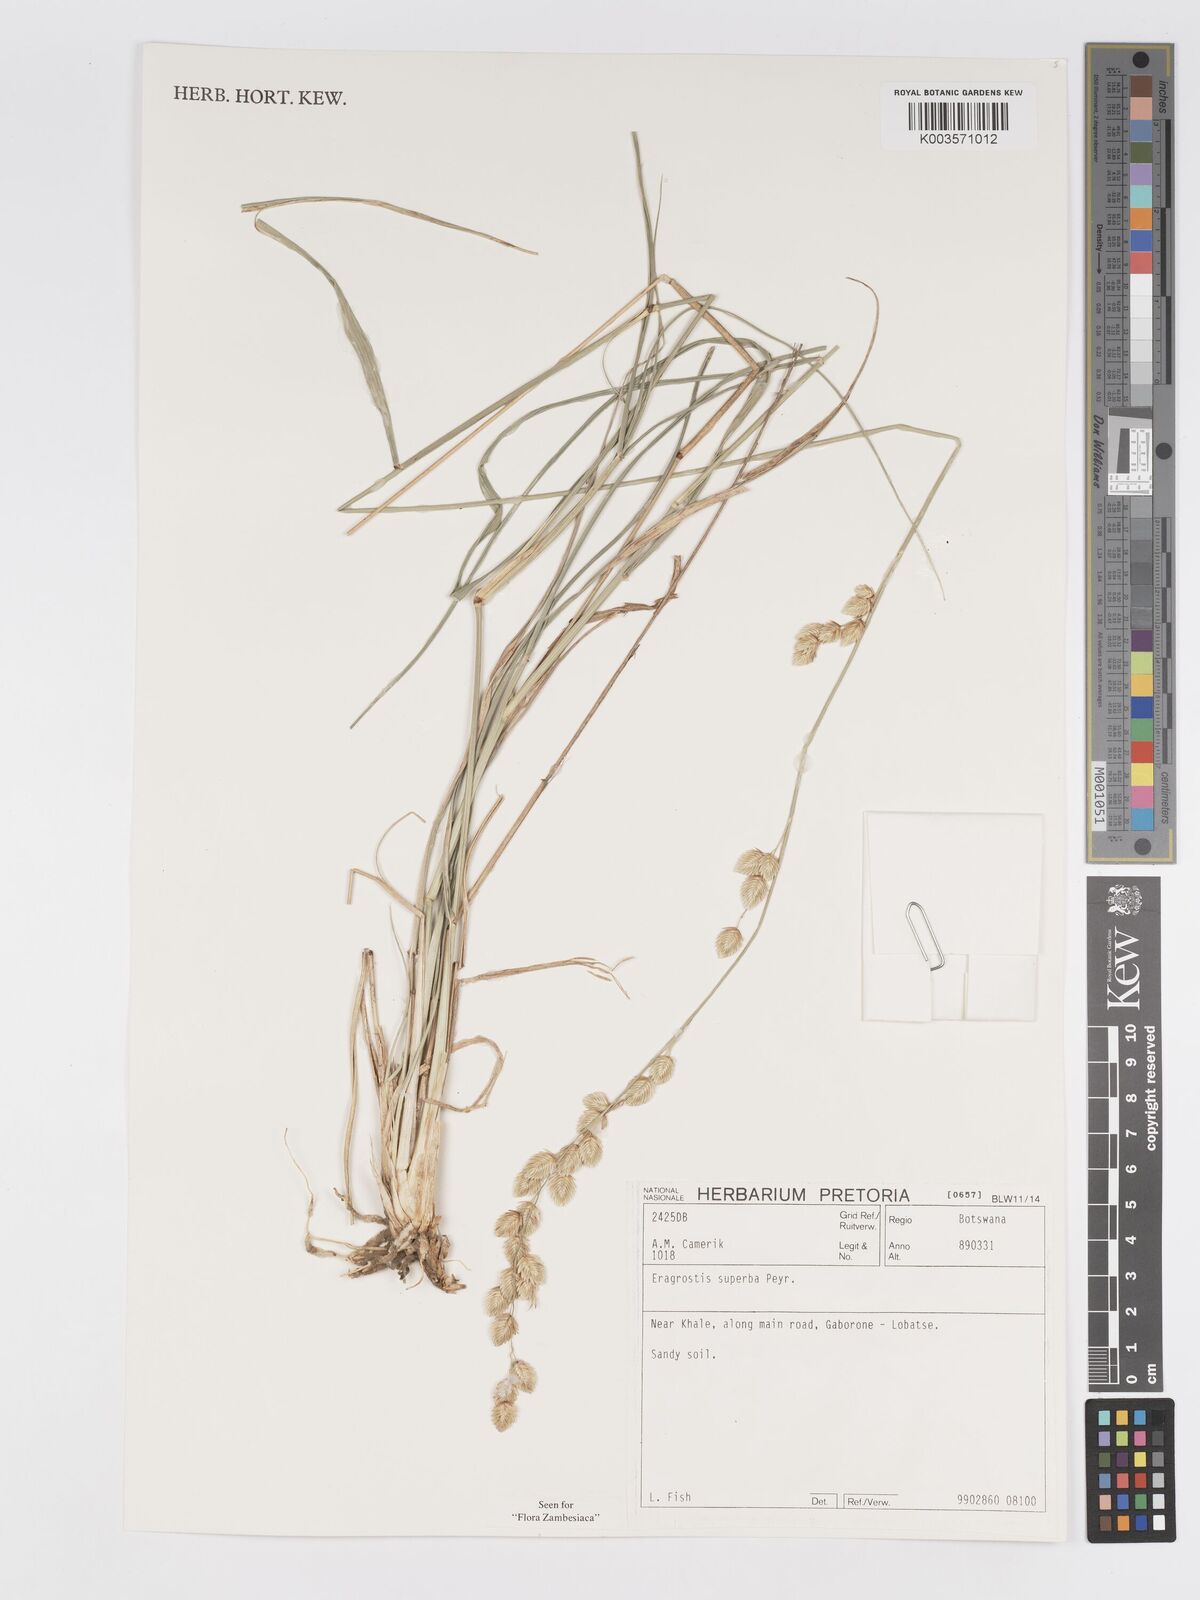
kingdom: Plantae
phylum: Tracheophyta
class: Liliopsida
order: Poales
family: Poaceae
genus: Eragrostis
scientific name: Eragrostis superba
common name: Wilman lovegrass
